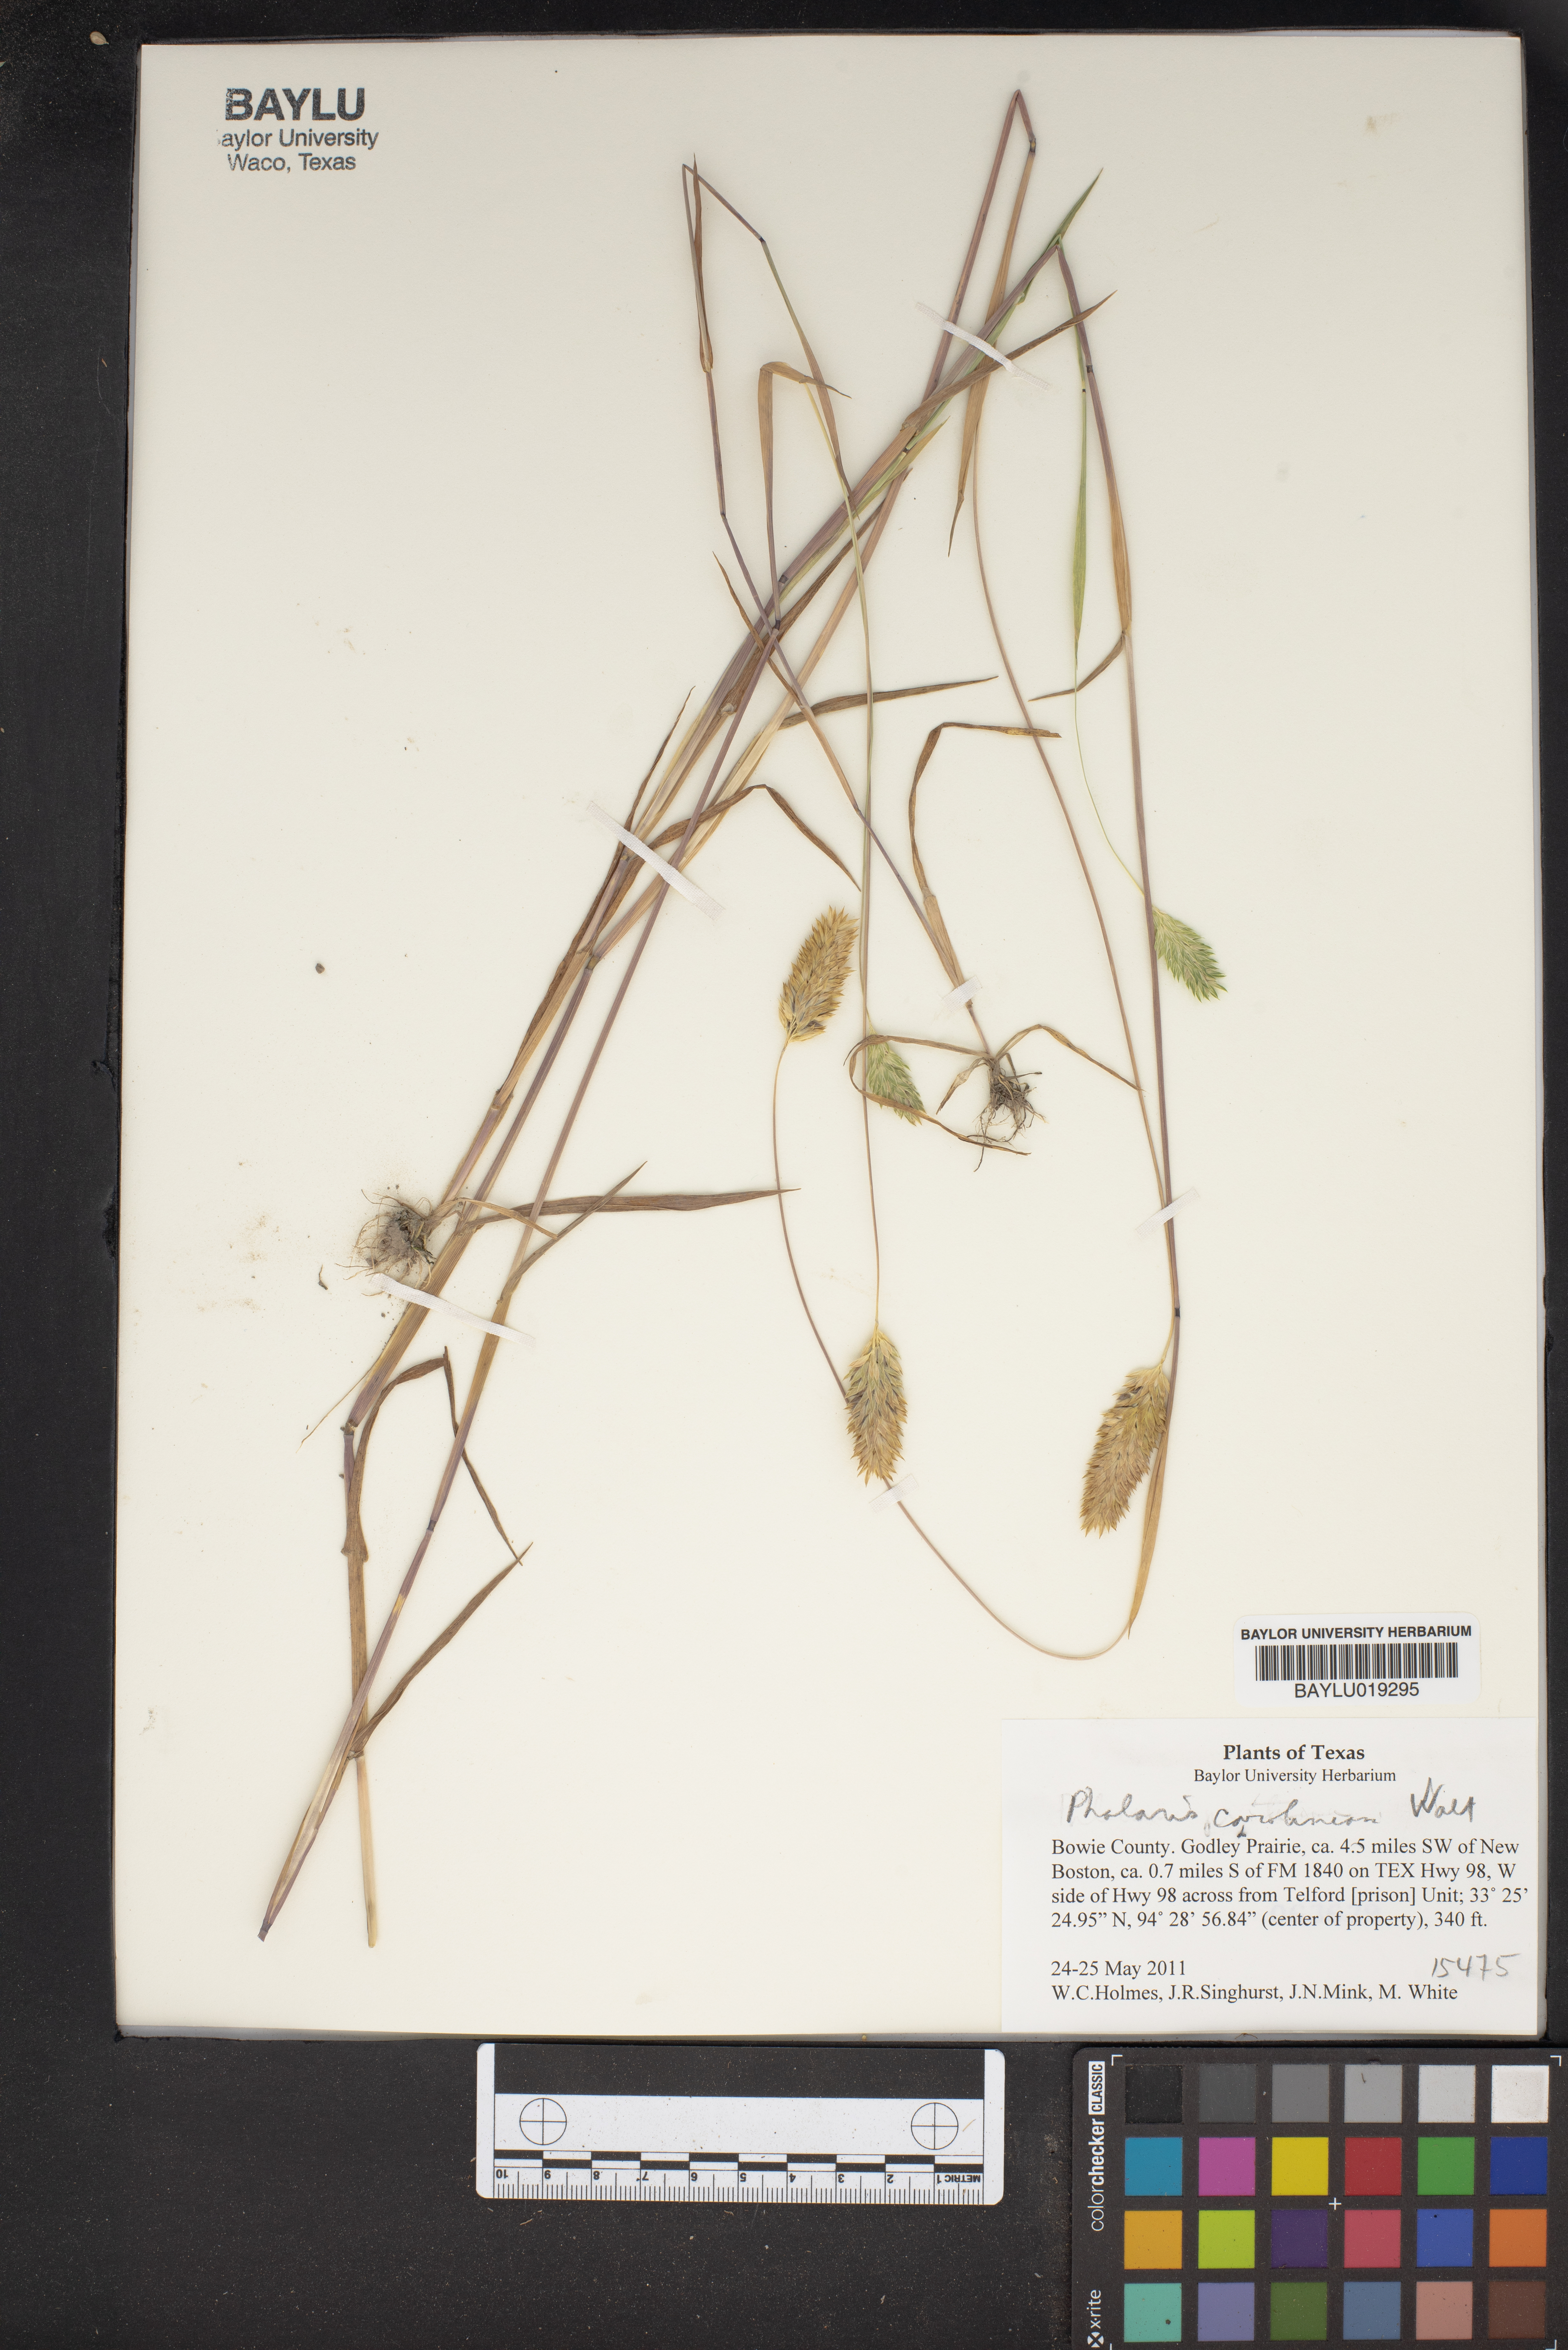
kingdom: Plantae
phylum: Tracheophyta
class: Liliopsida
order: Poales
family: Poaceae
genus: Phalaris
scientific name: Phalaris caroliniana
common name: May grass
